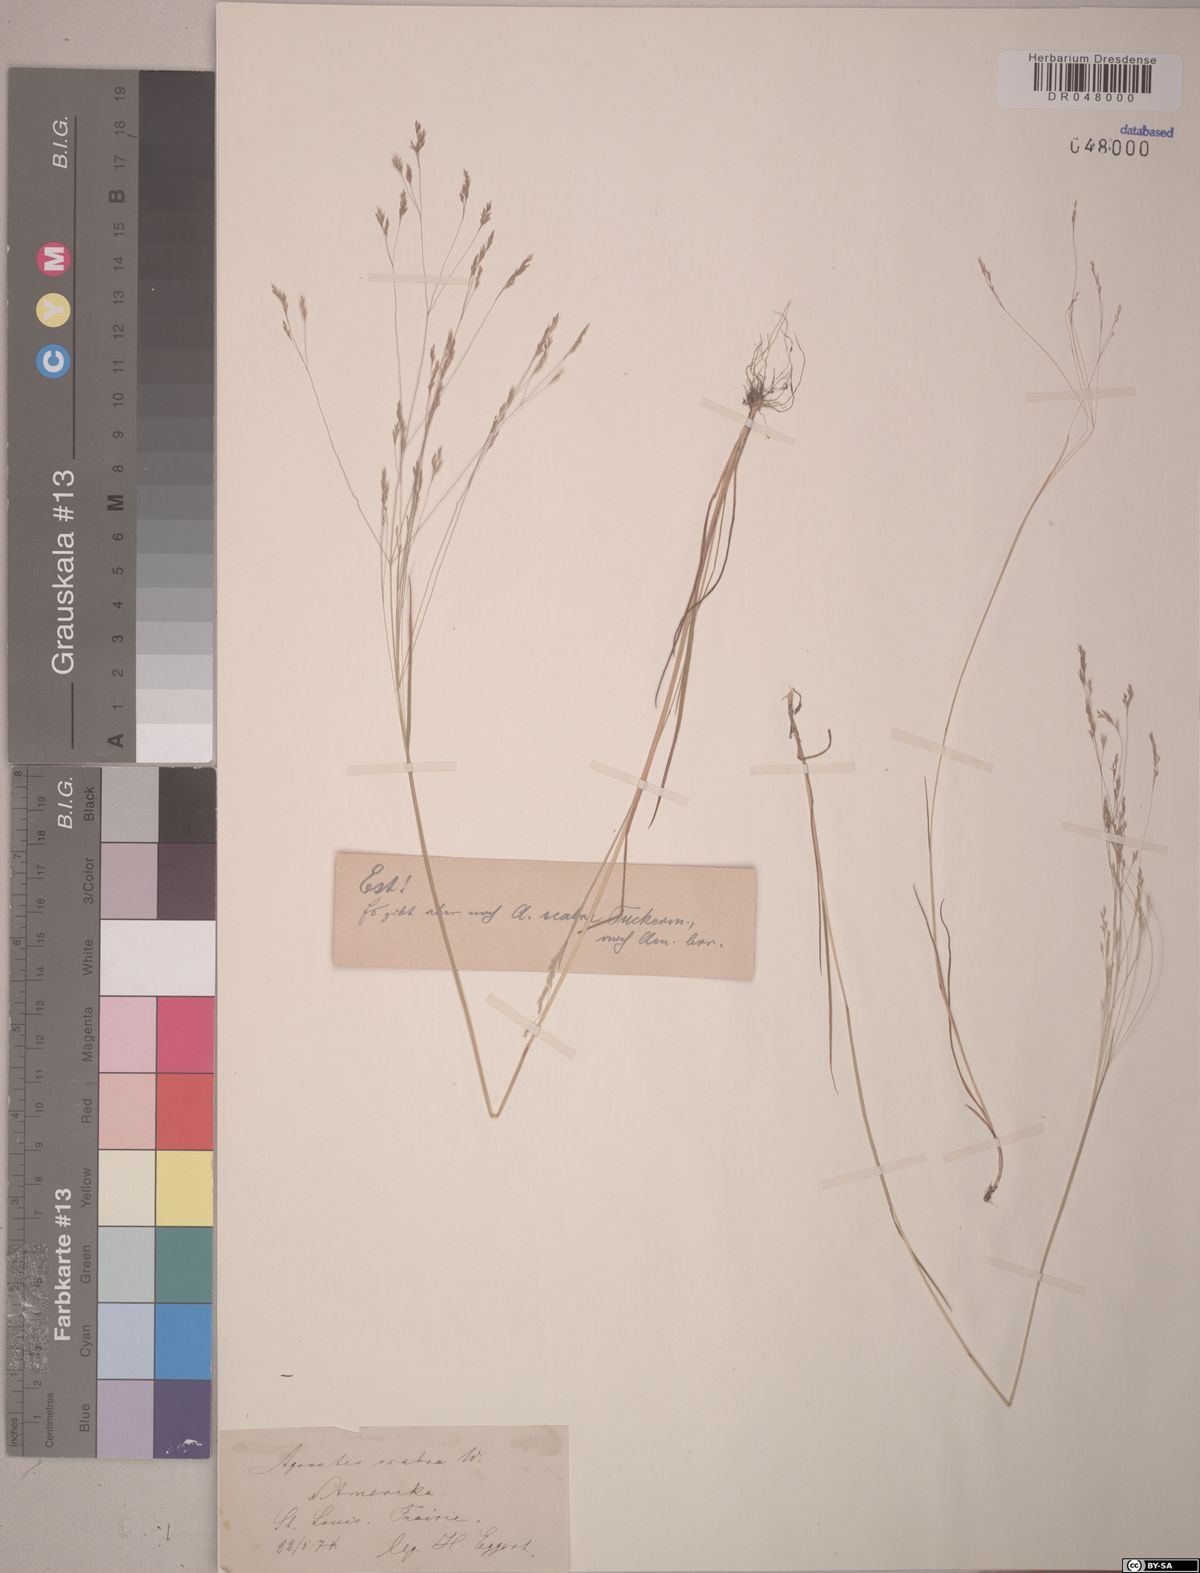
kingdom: Plantae
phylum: Tracheophyta
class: Liliopsida
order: Poales
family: Poaceae
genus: Agrostis
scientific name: Agrostis scabra
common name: Rough bent
